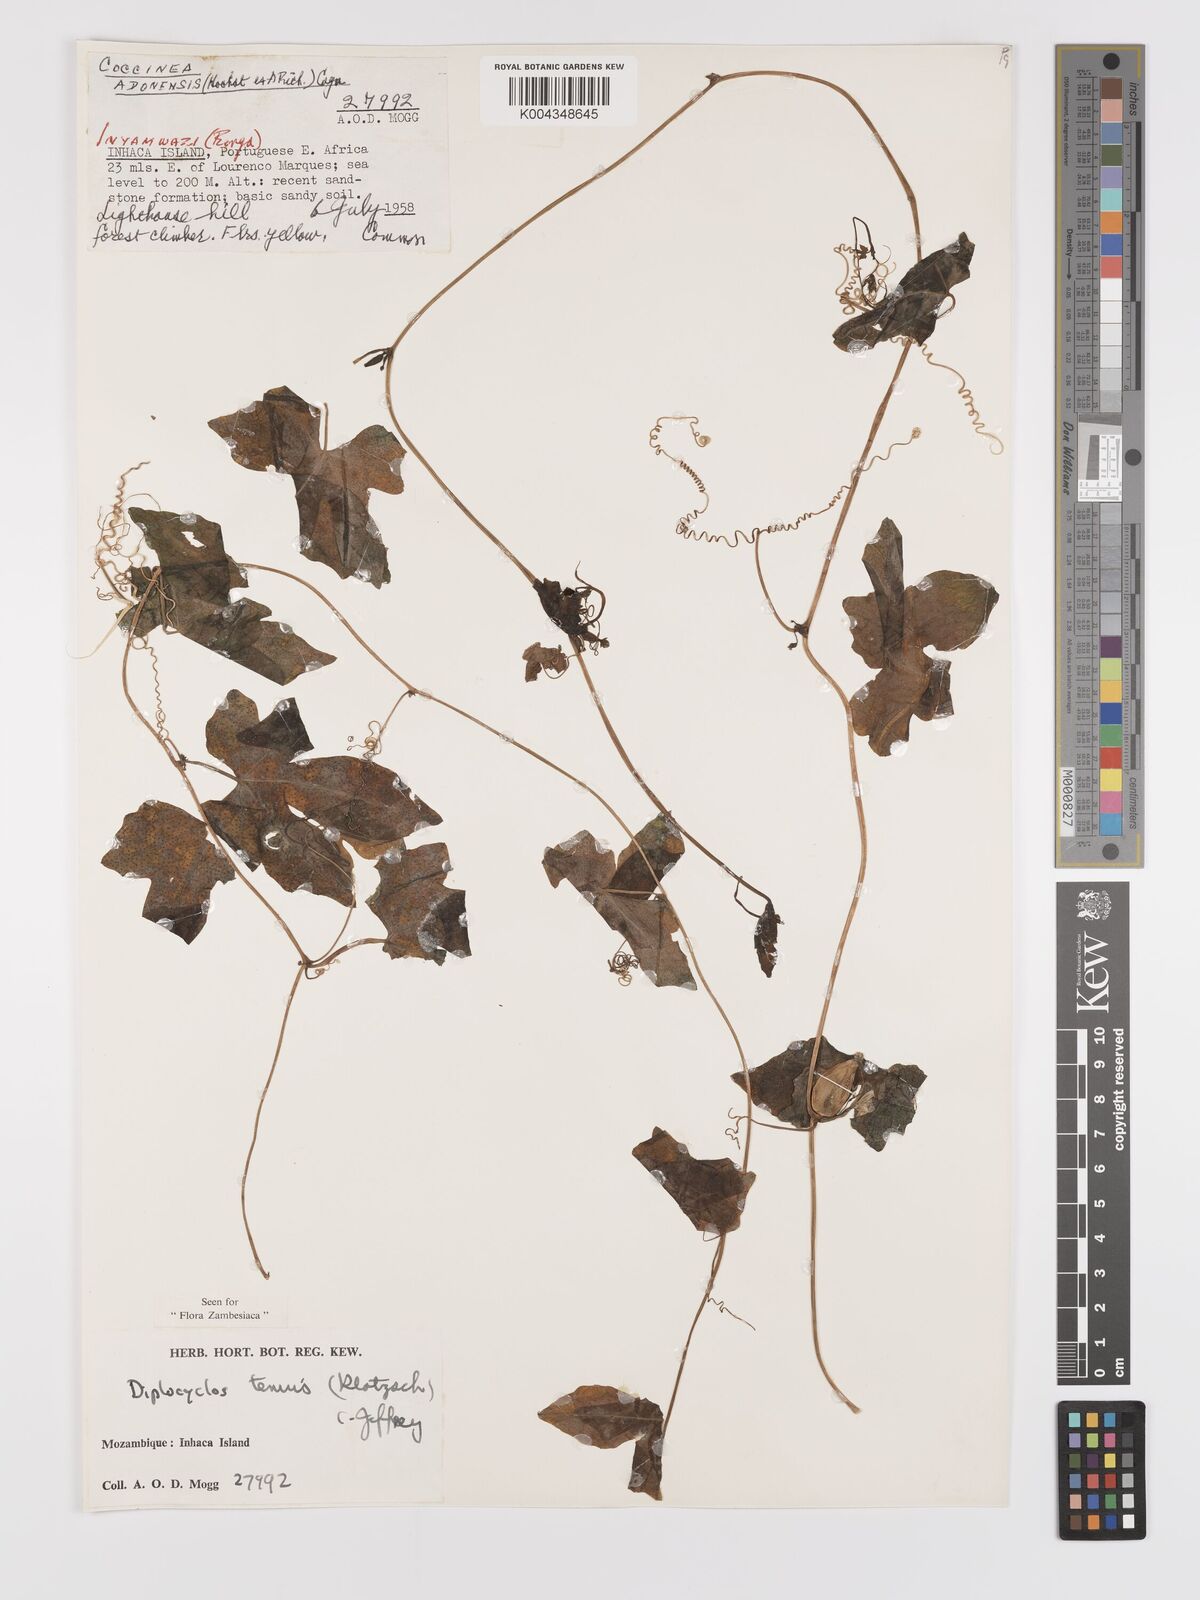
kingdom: Plantae
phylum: Tracheophyta
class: Magnoliopsida
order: Cucurbitales
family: Cucurbitaceae
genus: Diplocyclos
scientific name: Diplocyclos tenuis
